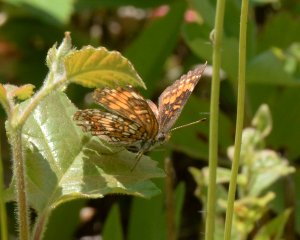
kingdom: Animalia
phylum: Arthropoda
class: Insecta
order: Lepidoptera
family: Nymphalidae
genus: Chlosyne
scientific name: Chlosyne harrisii
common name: Harris's Checkerspot
